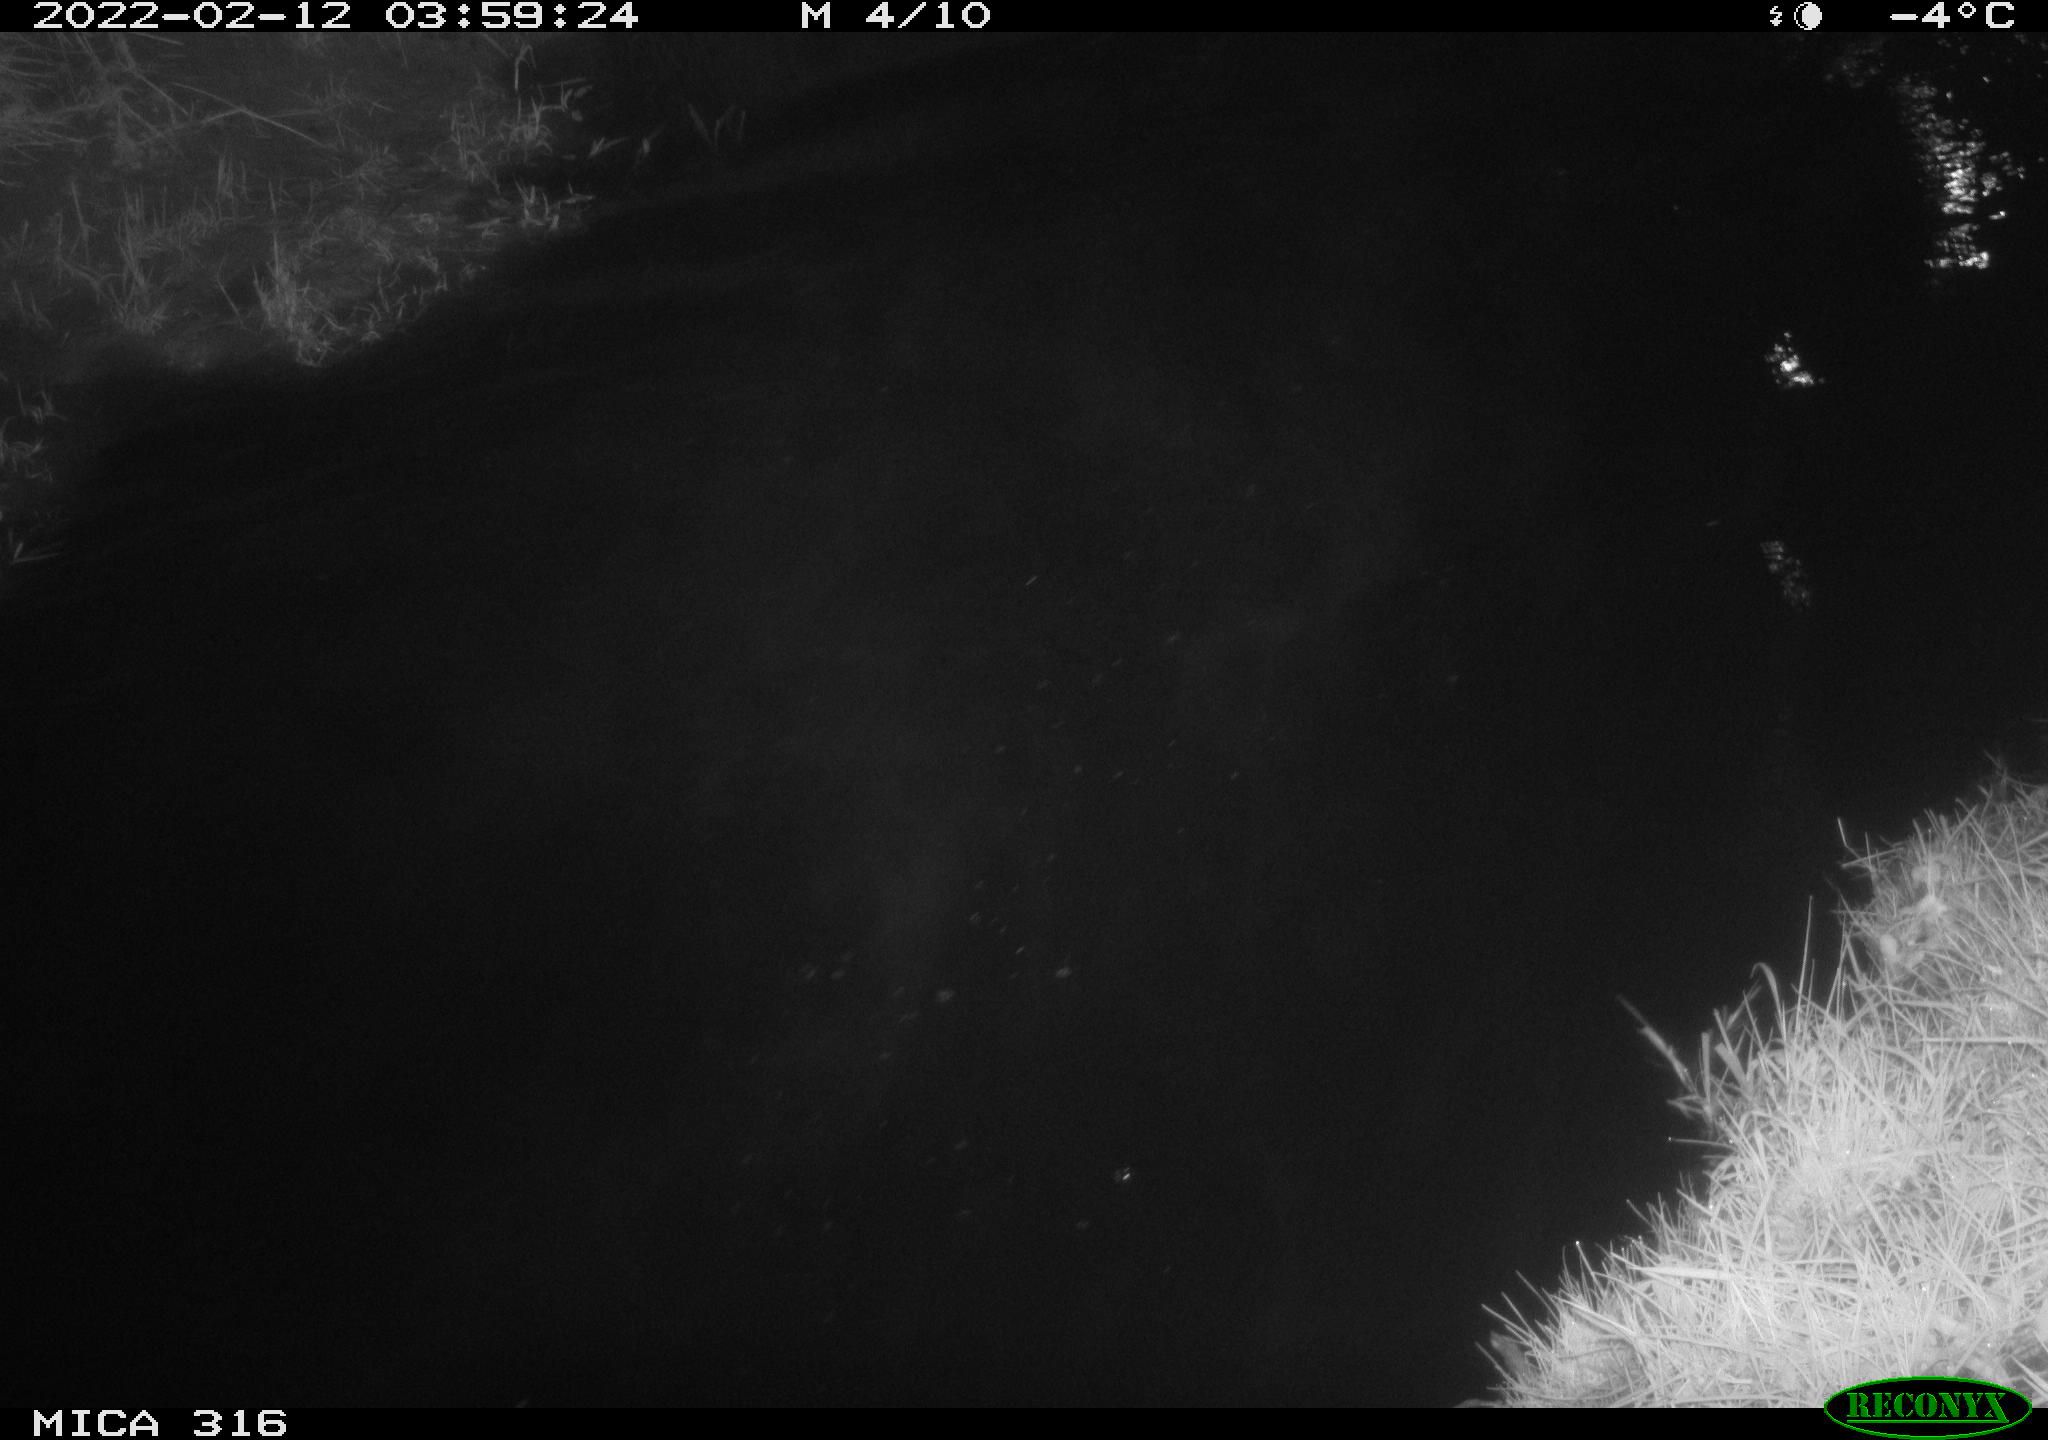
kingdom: Animalia
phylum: Chordata
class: Aves
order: Anseriformes
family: Anatidae
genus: Anas
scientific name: Anas platyrhynchos
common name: Mallard
